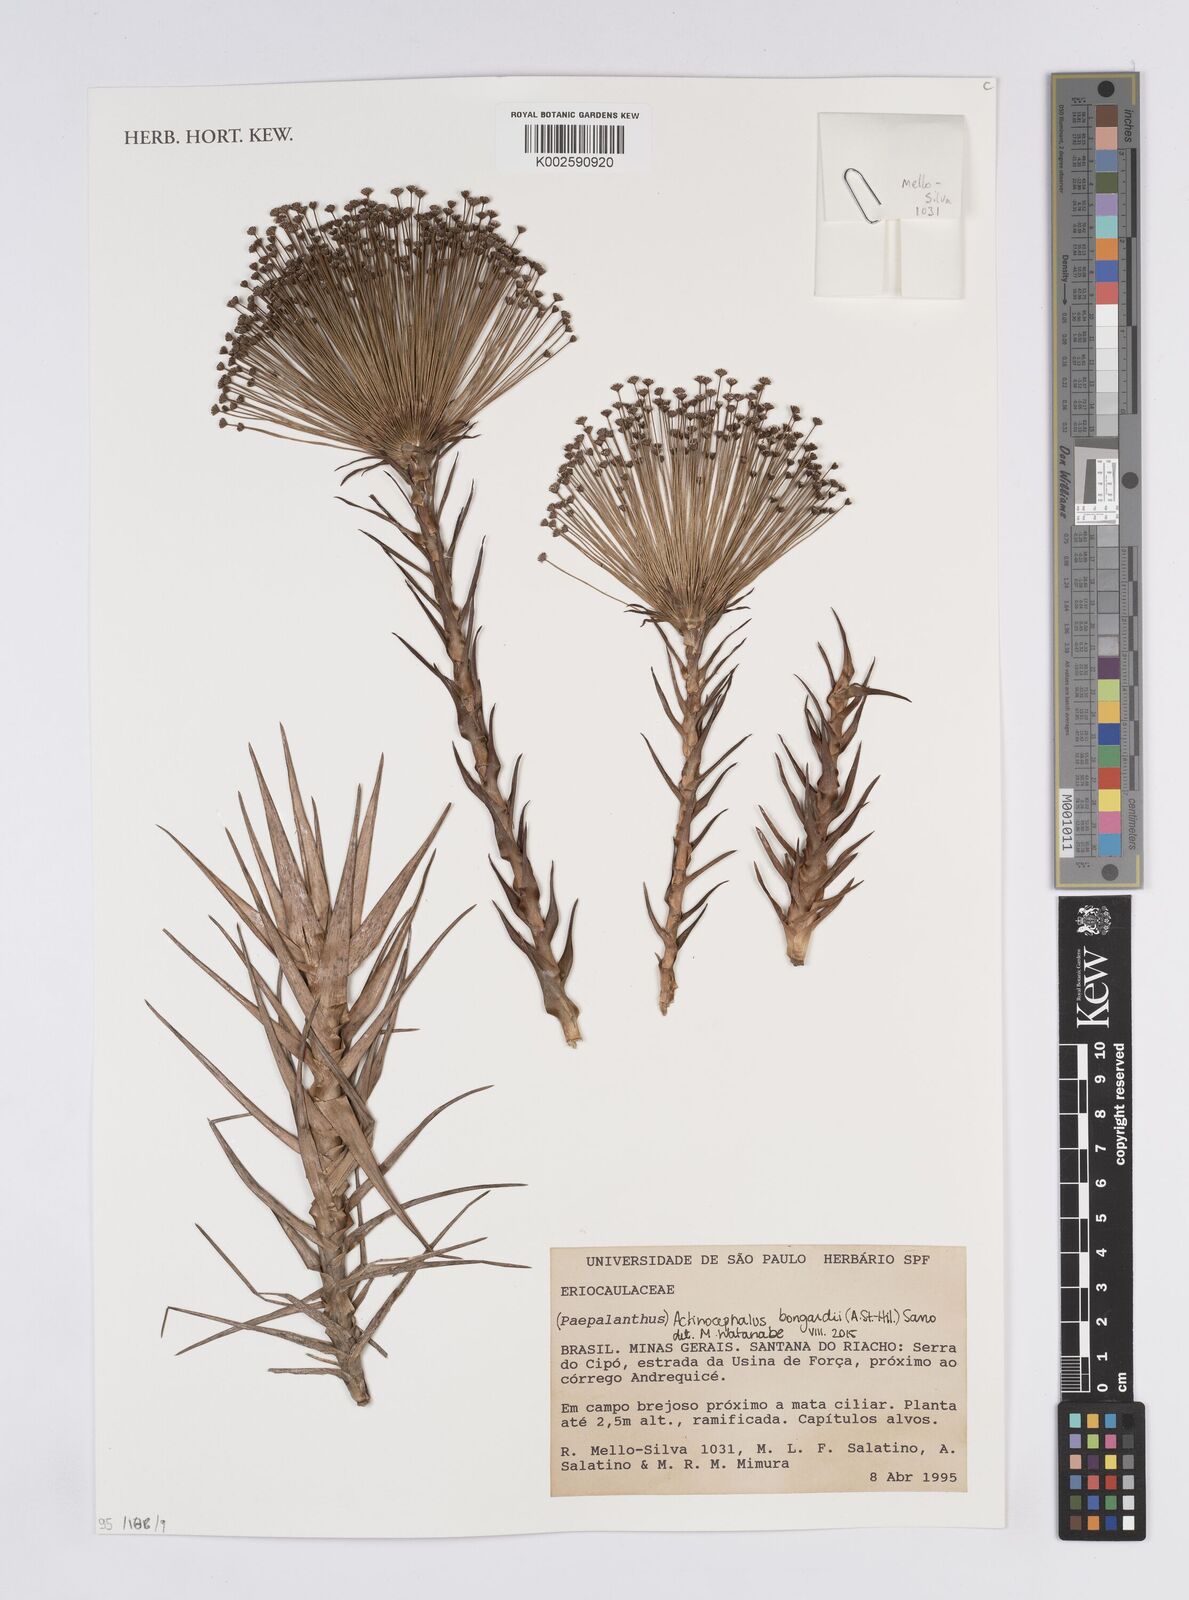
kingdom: Plantae
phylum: Tracheophyta
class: Liliopsida
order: Poales
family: Eriocaulaceae
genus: Paepalanthus
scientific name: Paepalanthus hilairei
